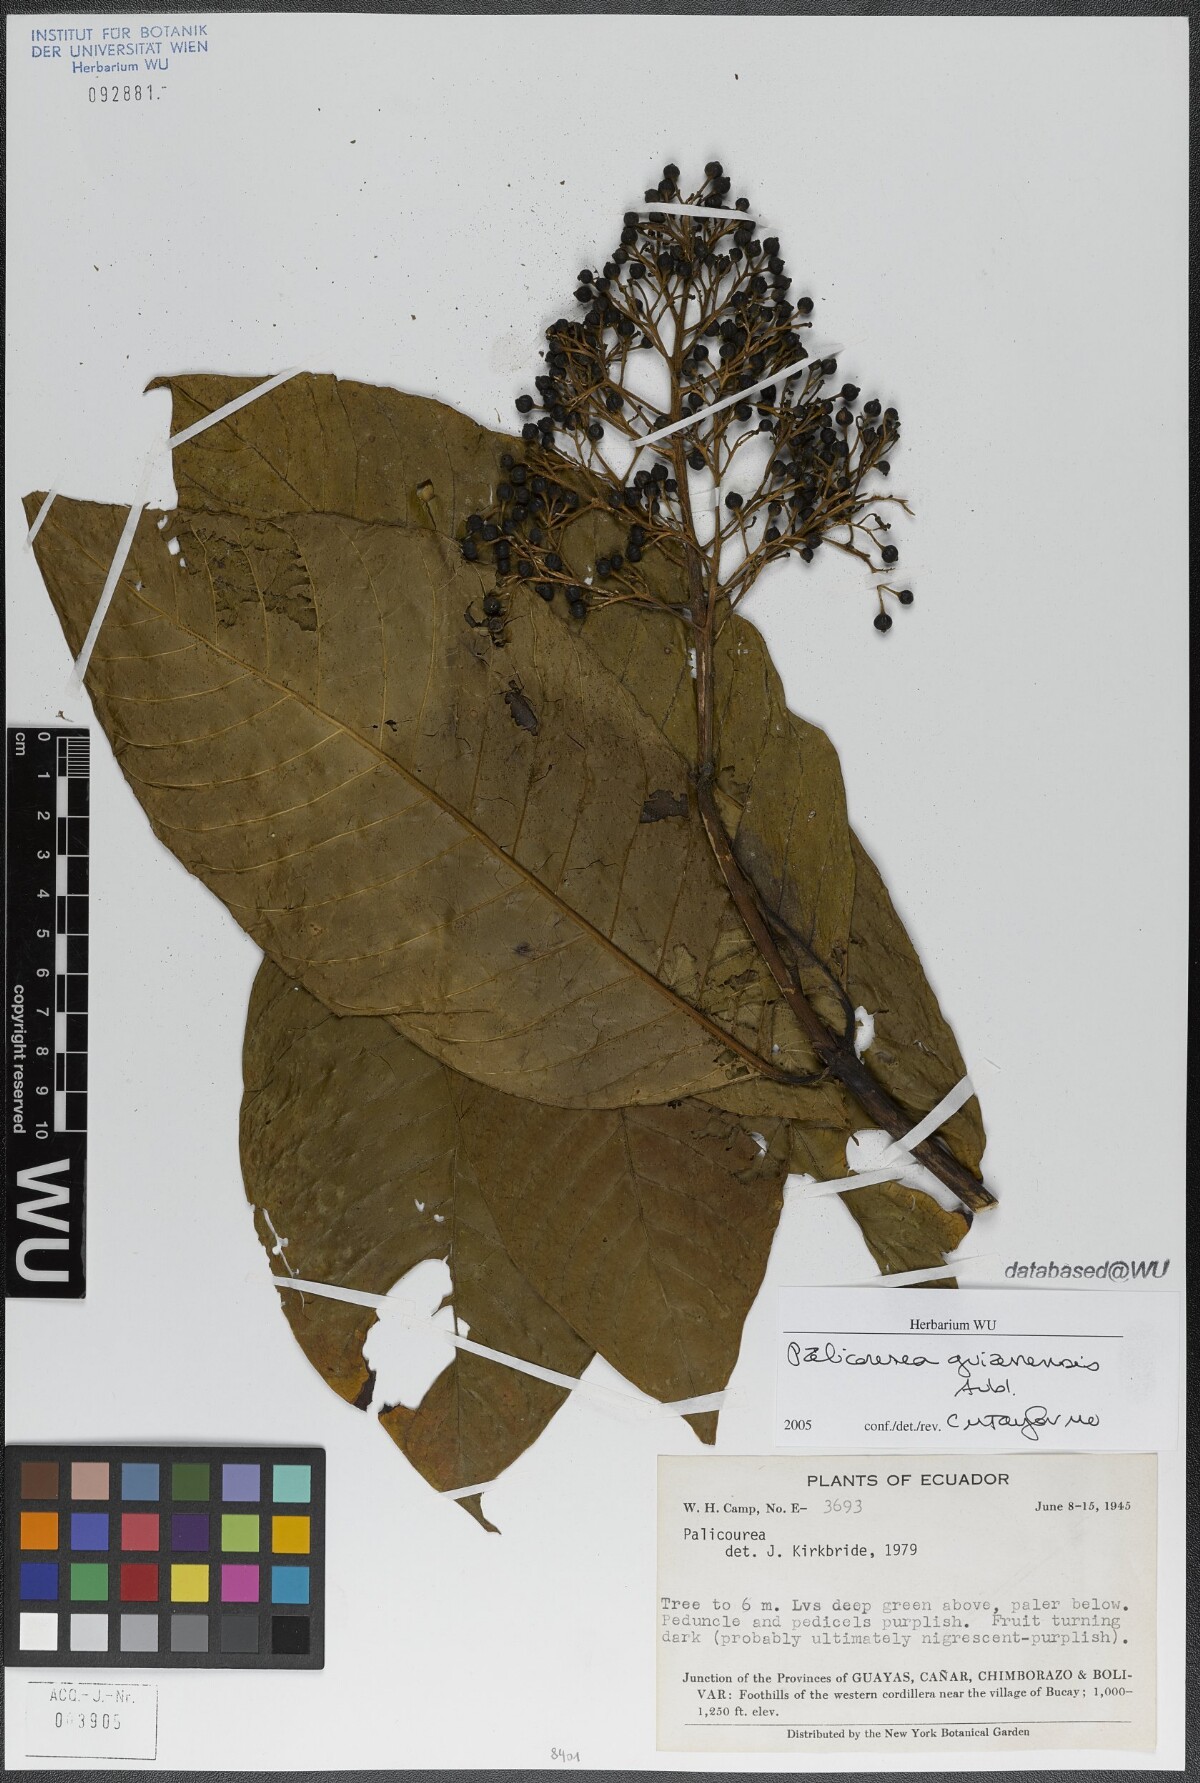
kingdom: Plantae
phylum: Tracheophyta
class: Magnoliopsida
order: Gentianales
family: Rubiaceae
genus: Palicourea
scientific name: Palicourea guianensis
